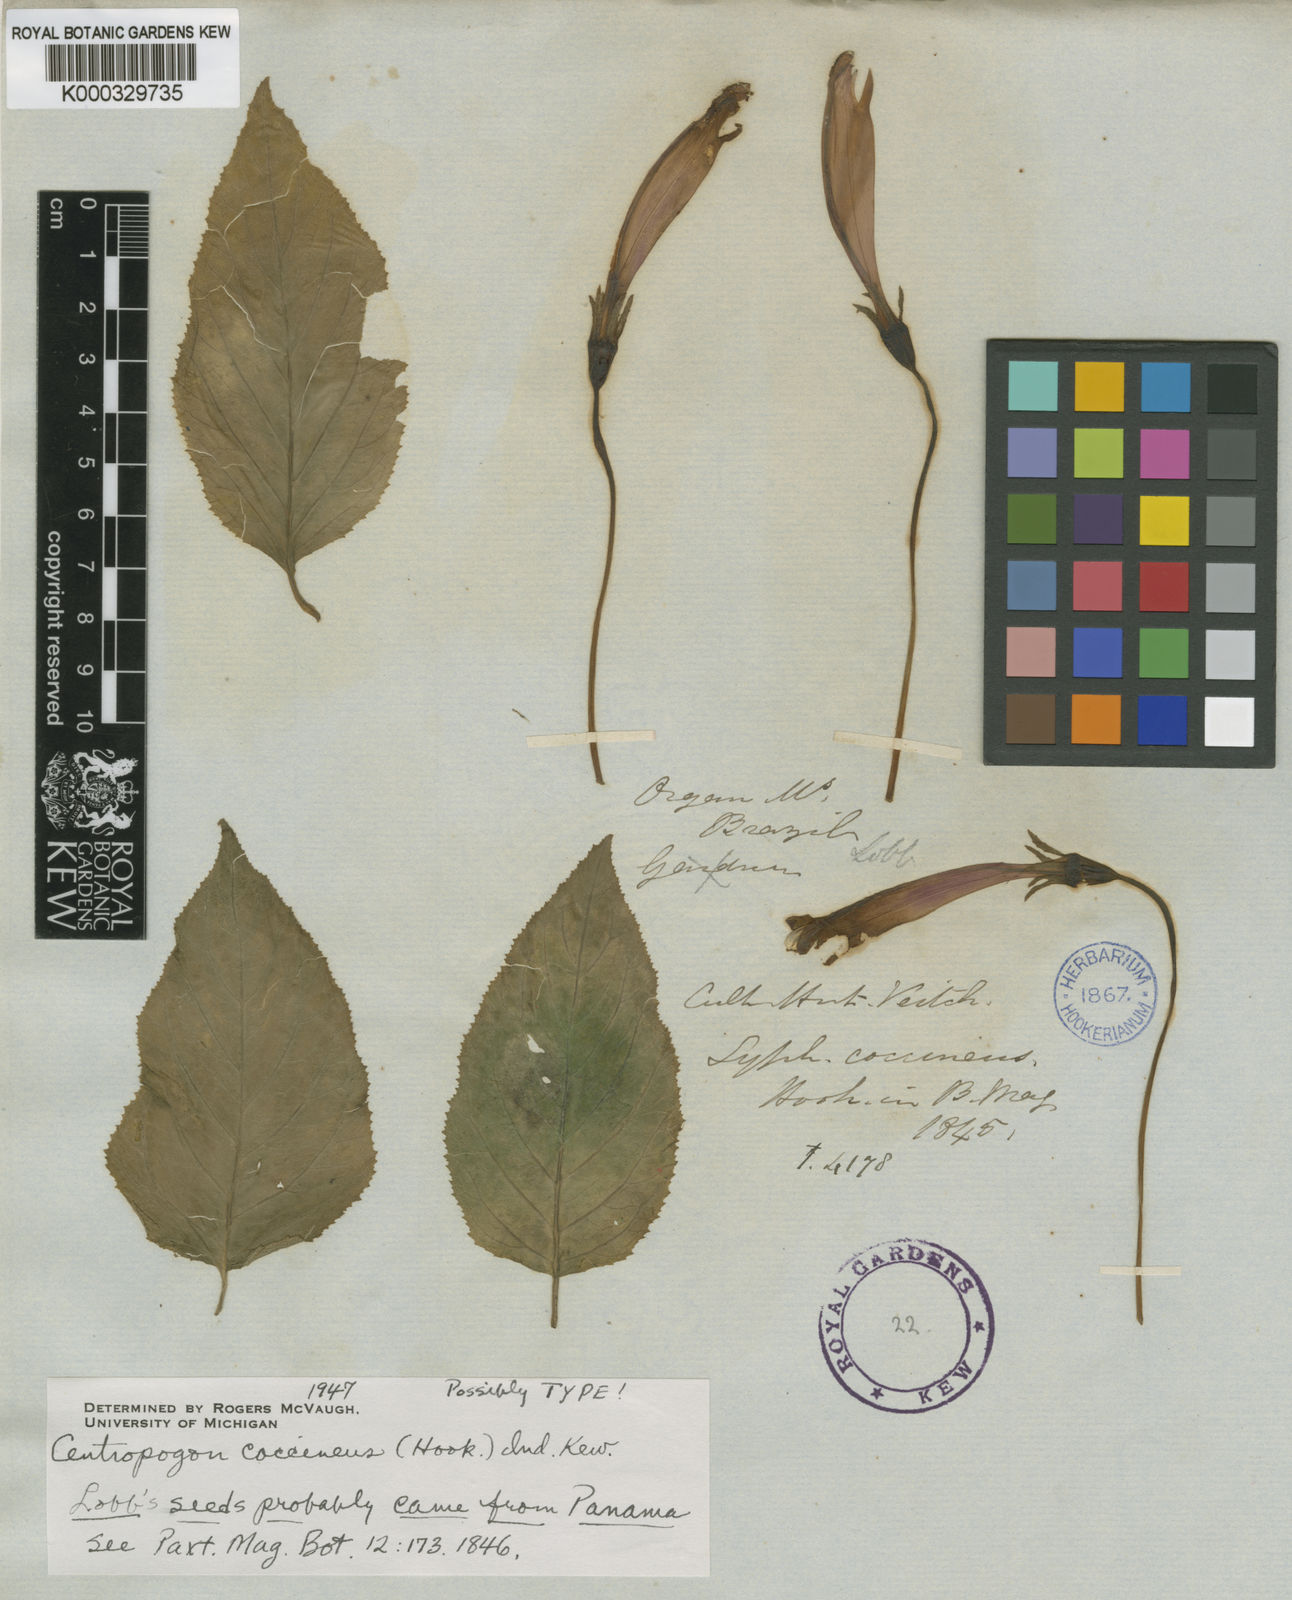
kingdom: Plantae
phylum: Tracheophyta
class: Magnoliopsida
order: Asterales
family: Campanulaceae
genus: Centropogon
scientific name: Centropogon coccineus
